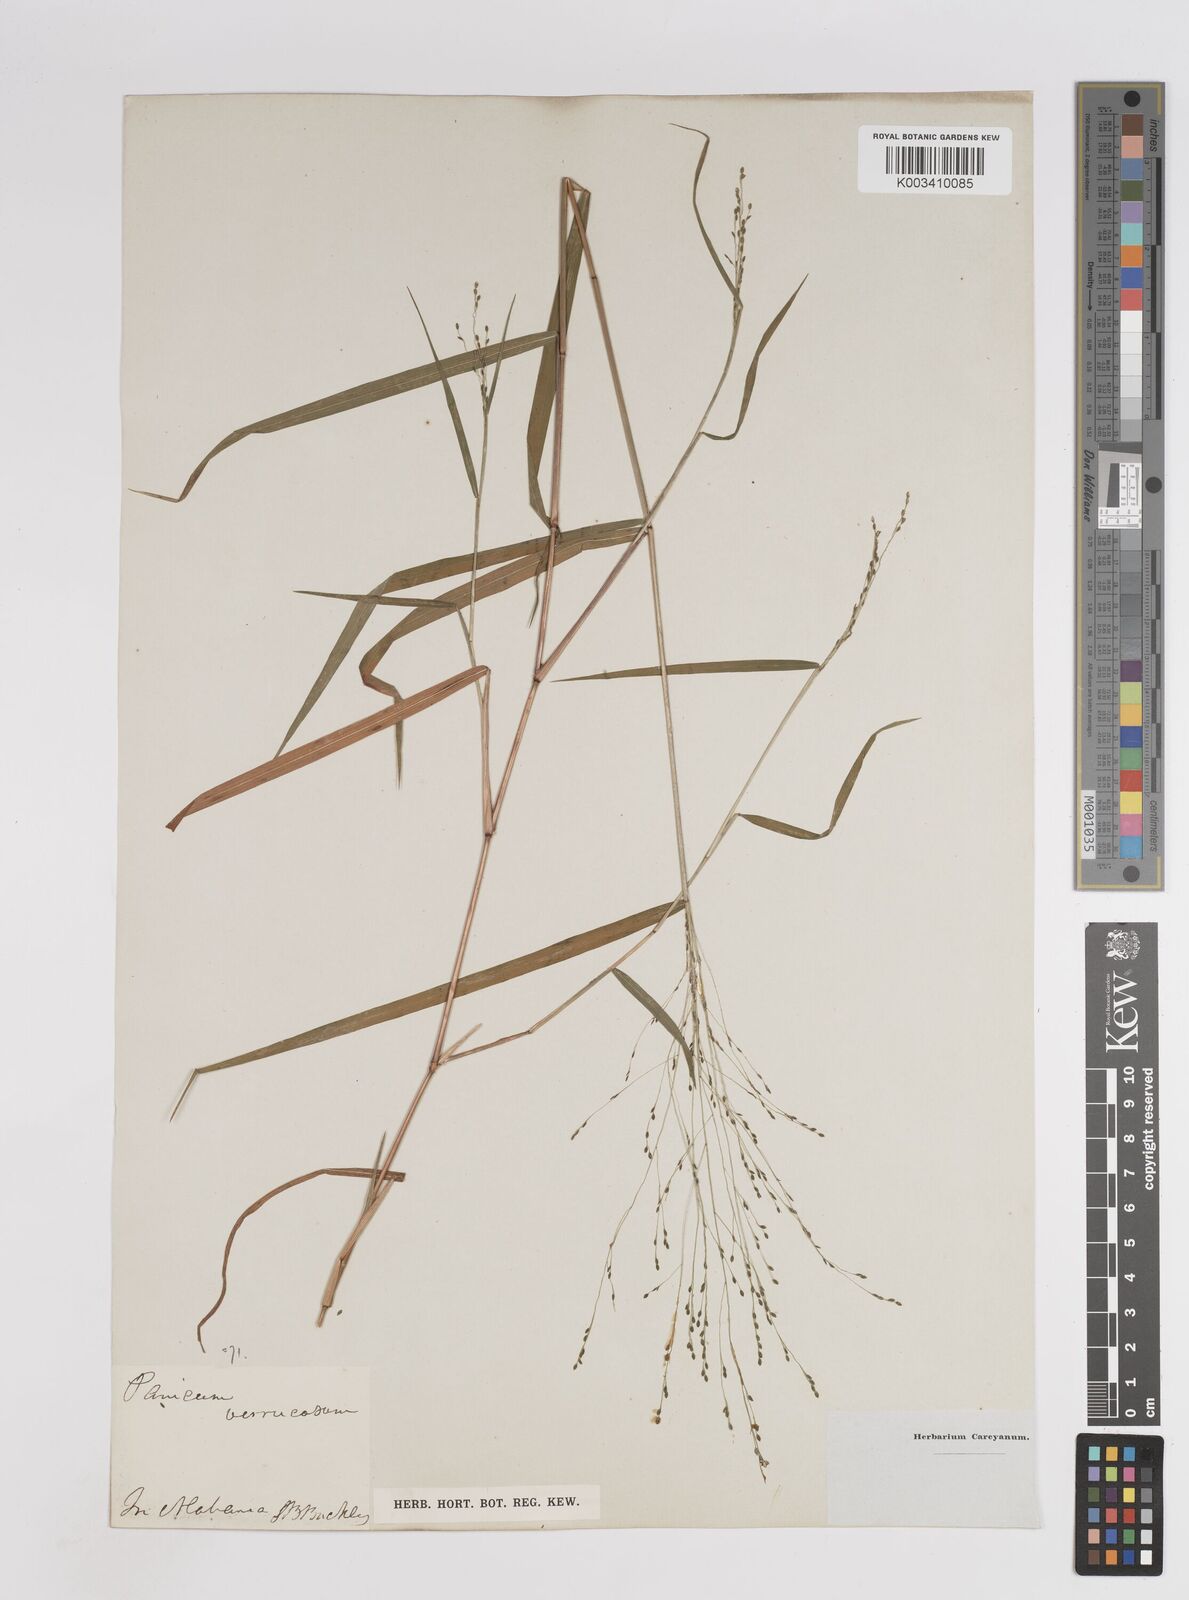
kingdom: Plantae
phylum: Tracheophyta
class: Liliopsida
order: Poales
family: Poaceae
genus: Kellochloa
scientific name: Kellochloa verrucosa
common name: Warty panic grass
